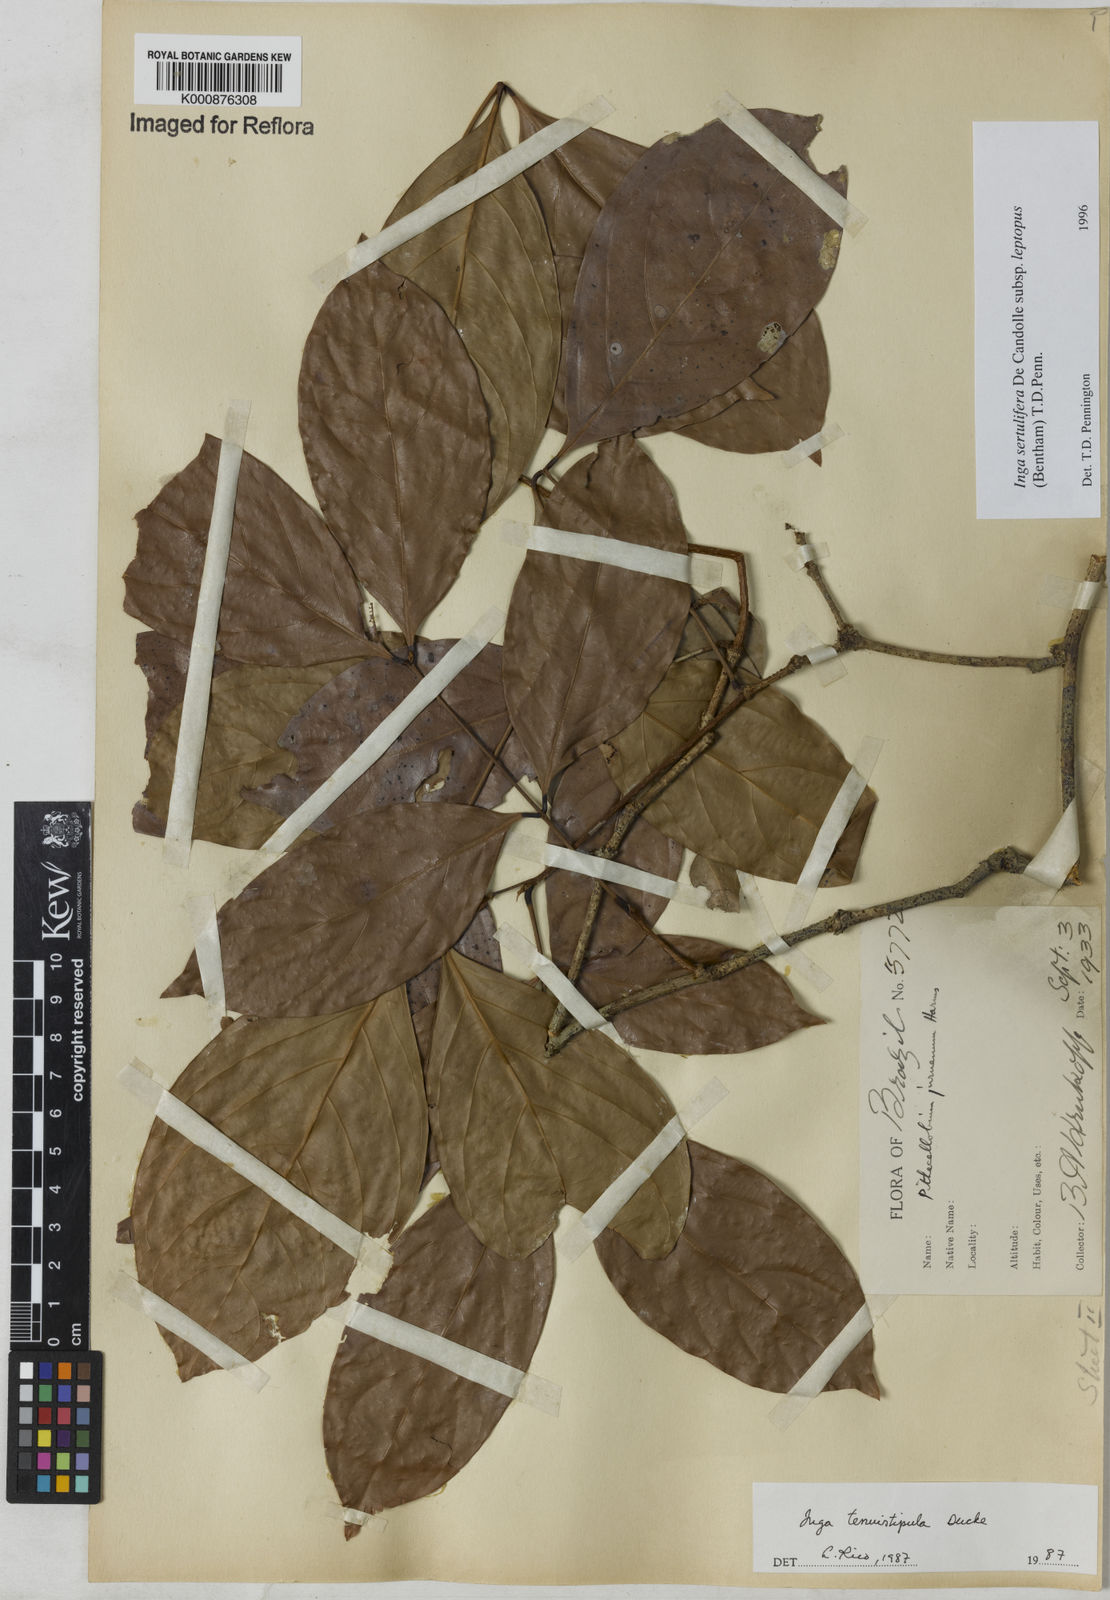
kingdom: Plantae
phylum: Tracheophyta
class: Magnoliopsida
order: Fabales
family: Fabaceae
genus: Inga
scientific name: Inga sertulifera
